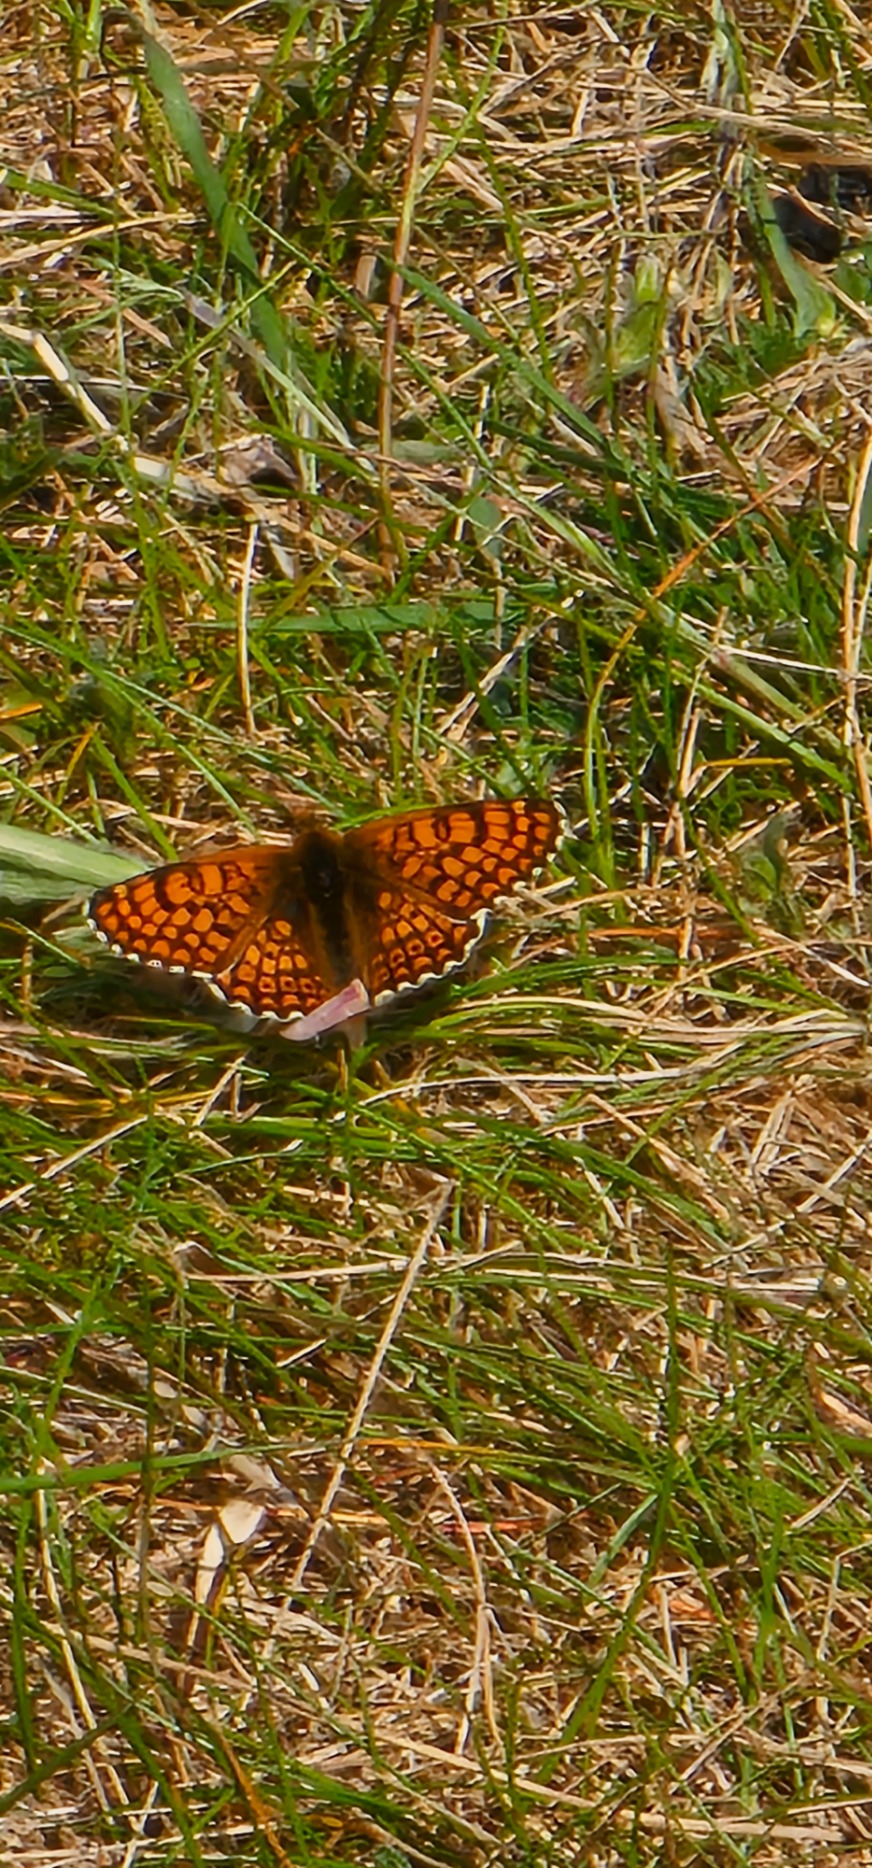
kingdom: Animalia
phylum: Arthropoda
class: Insecta
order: Lepidoptera
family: Nymphalidae
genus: Melitaea
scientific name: Melitaea cinxia
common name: Okkergul pletvinge
